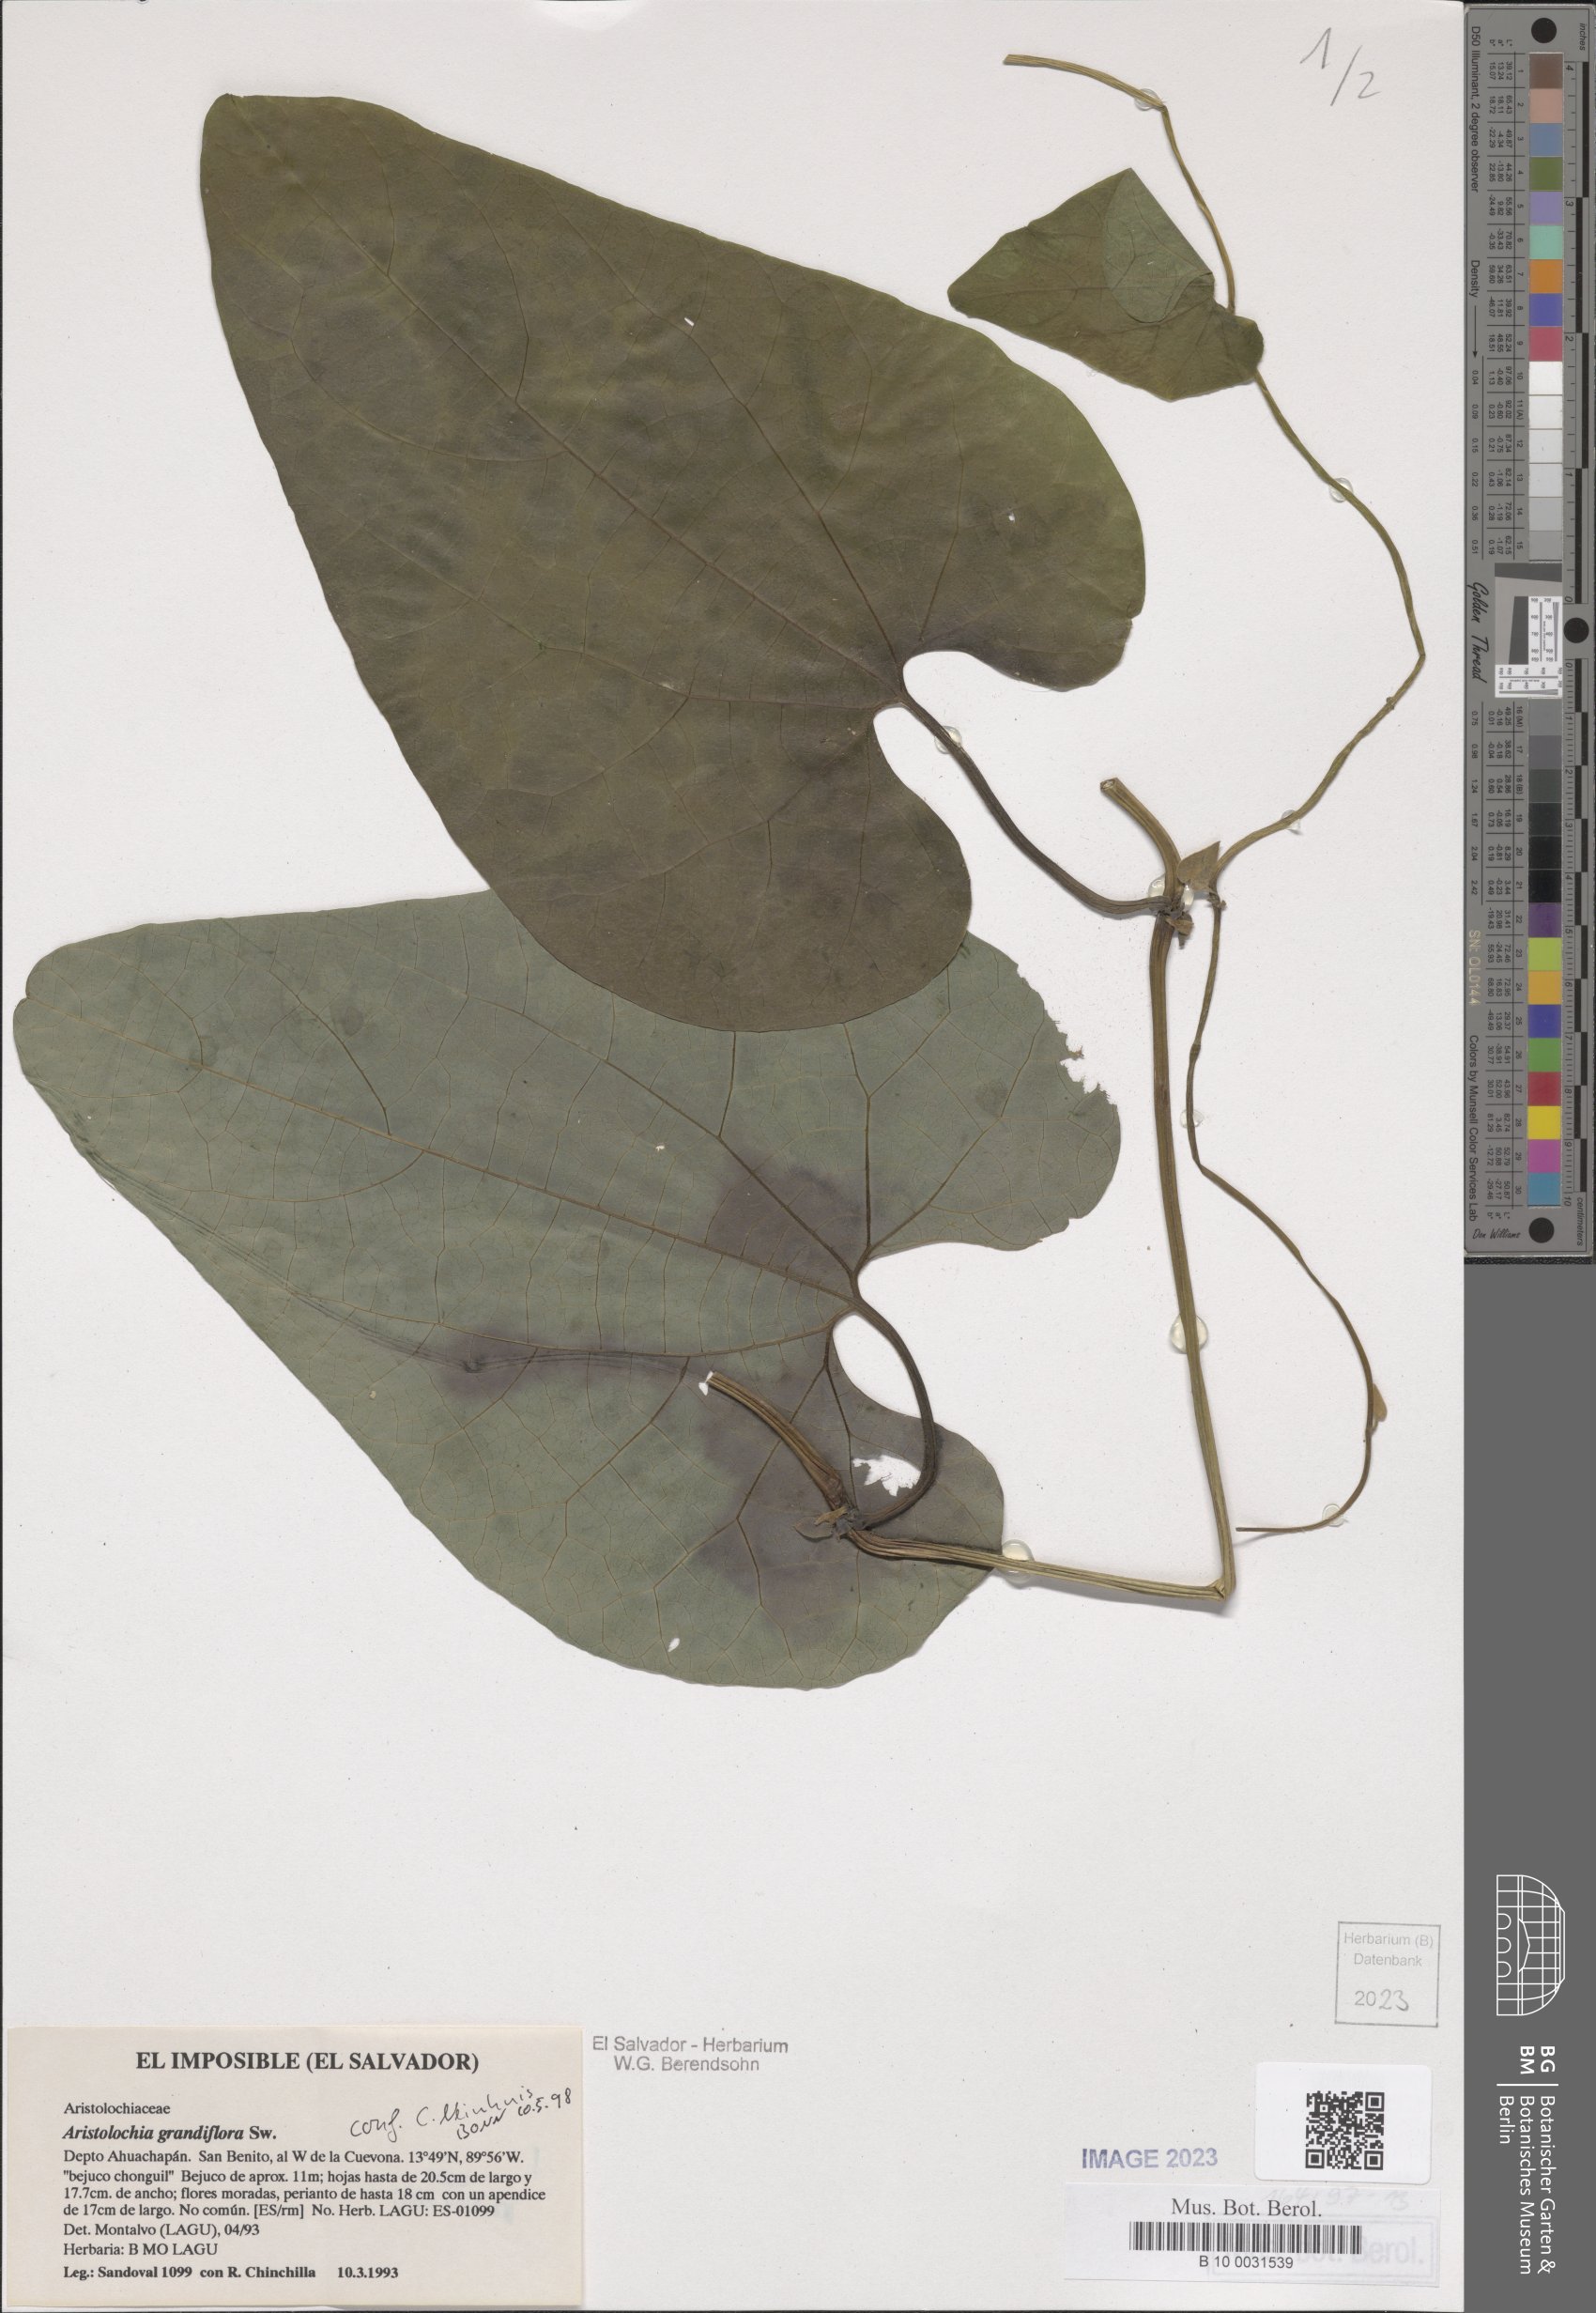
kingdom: Plantae
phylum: Tracheophyta
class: Magnoliopsida
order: Piperales
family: Aristolochiaceae
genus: Aristolochia
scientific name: Aristolochia grandiflora
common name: Pelicanflower
